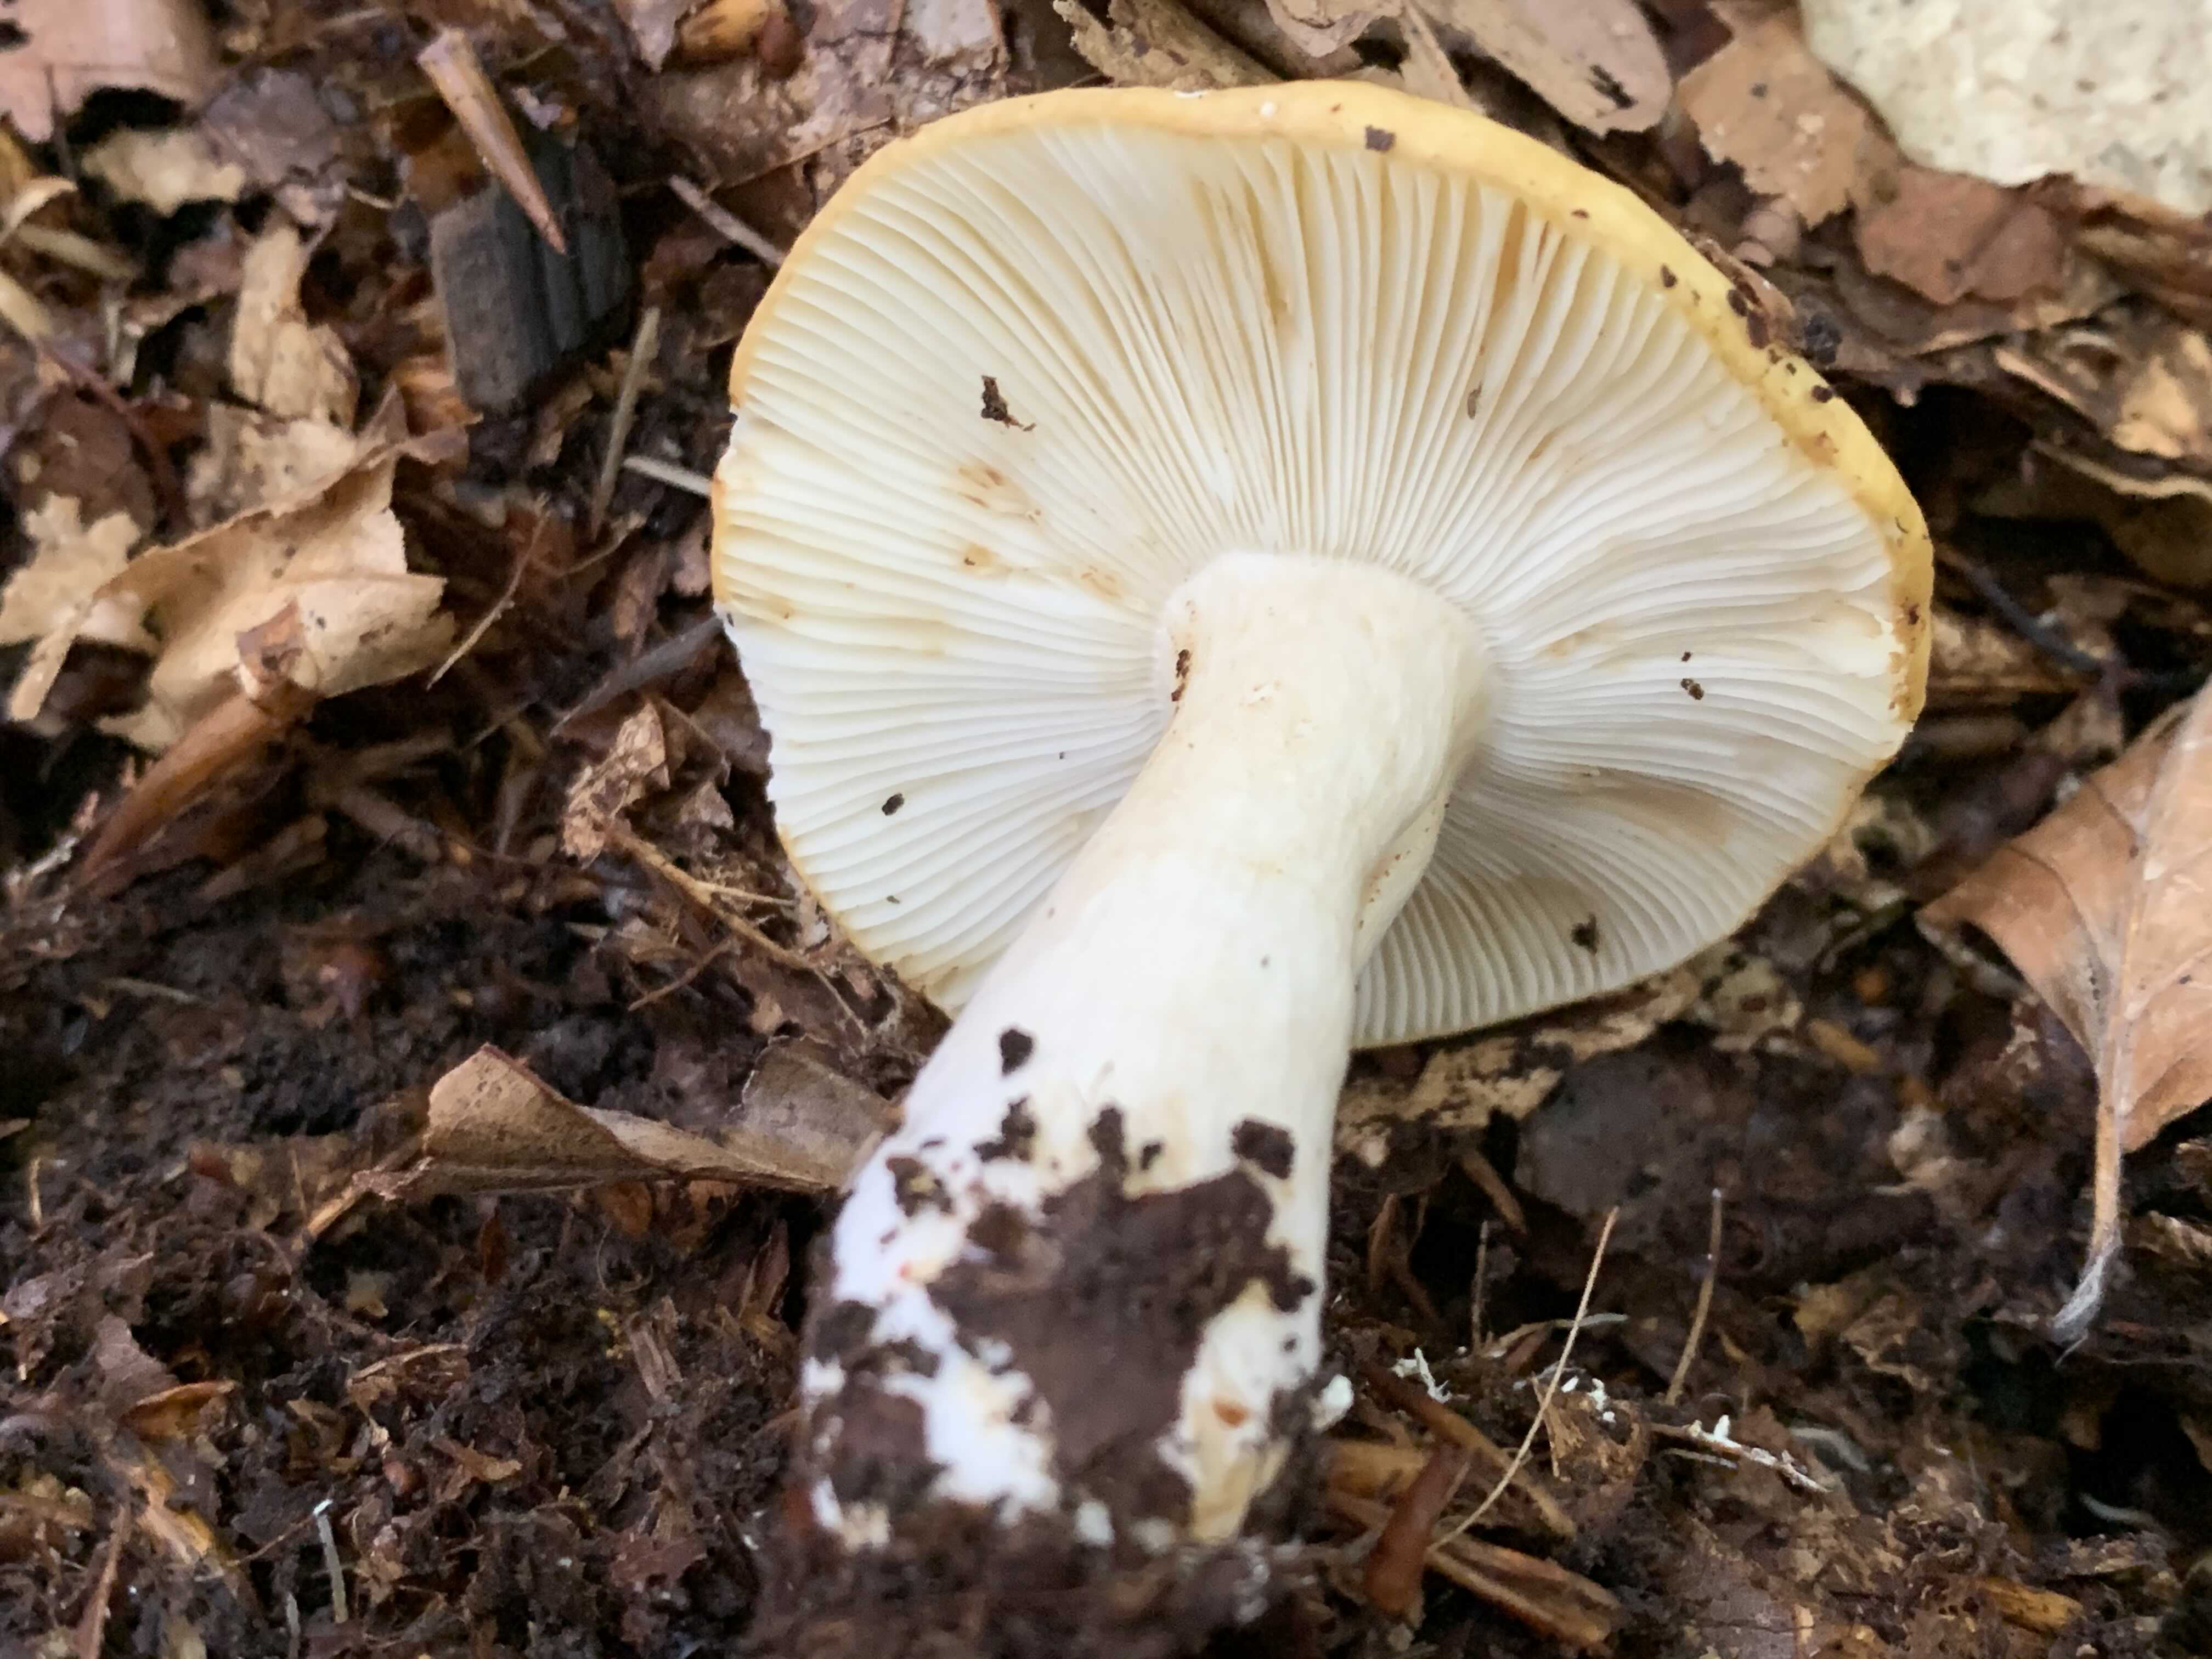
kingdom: Fungi
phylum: Basidiomycota
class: Agaricomycetes
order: Russulales
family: Russulaceae
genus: Russula
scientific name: Russula ochroleuca
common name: okkergul skørhat
